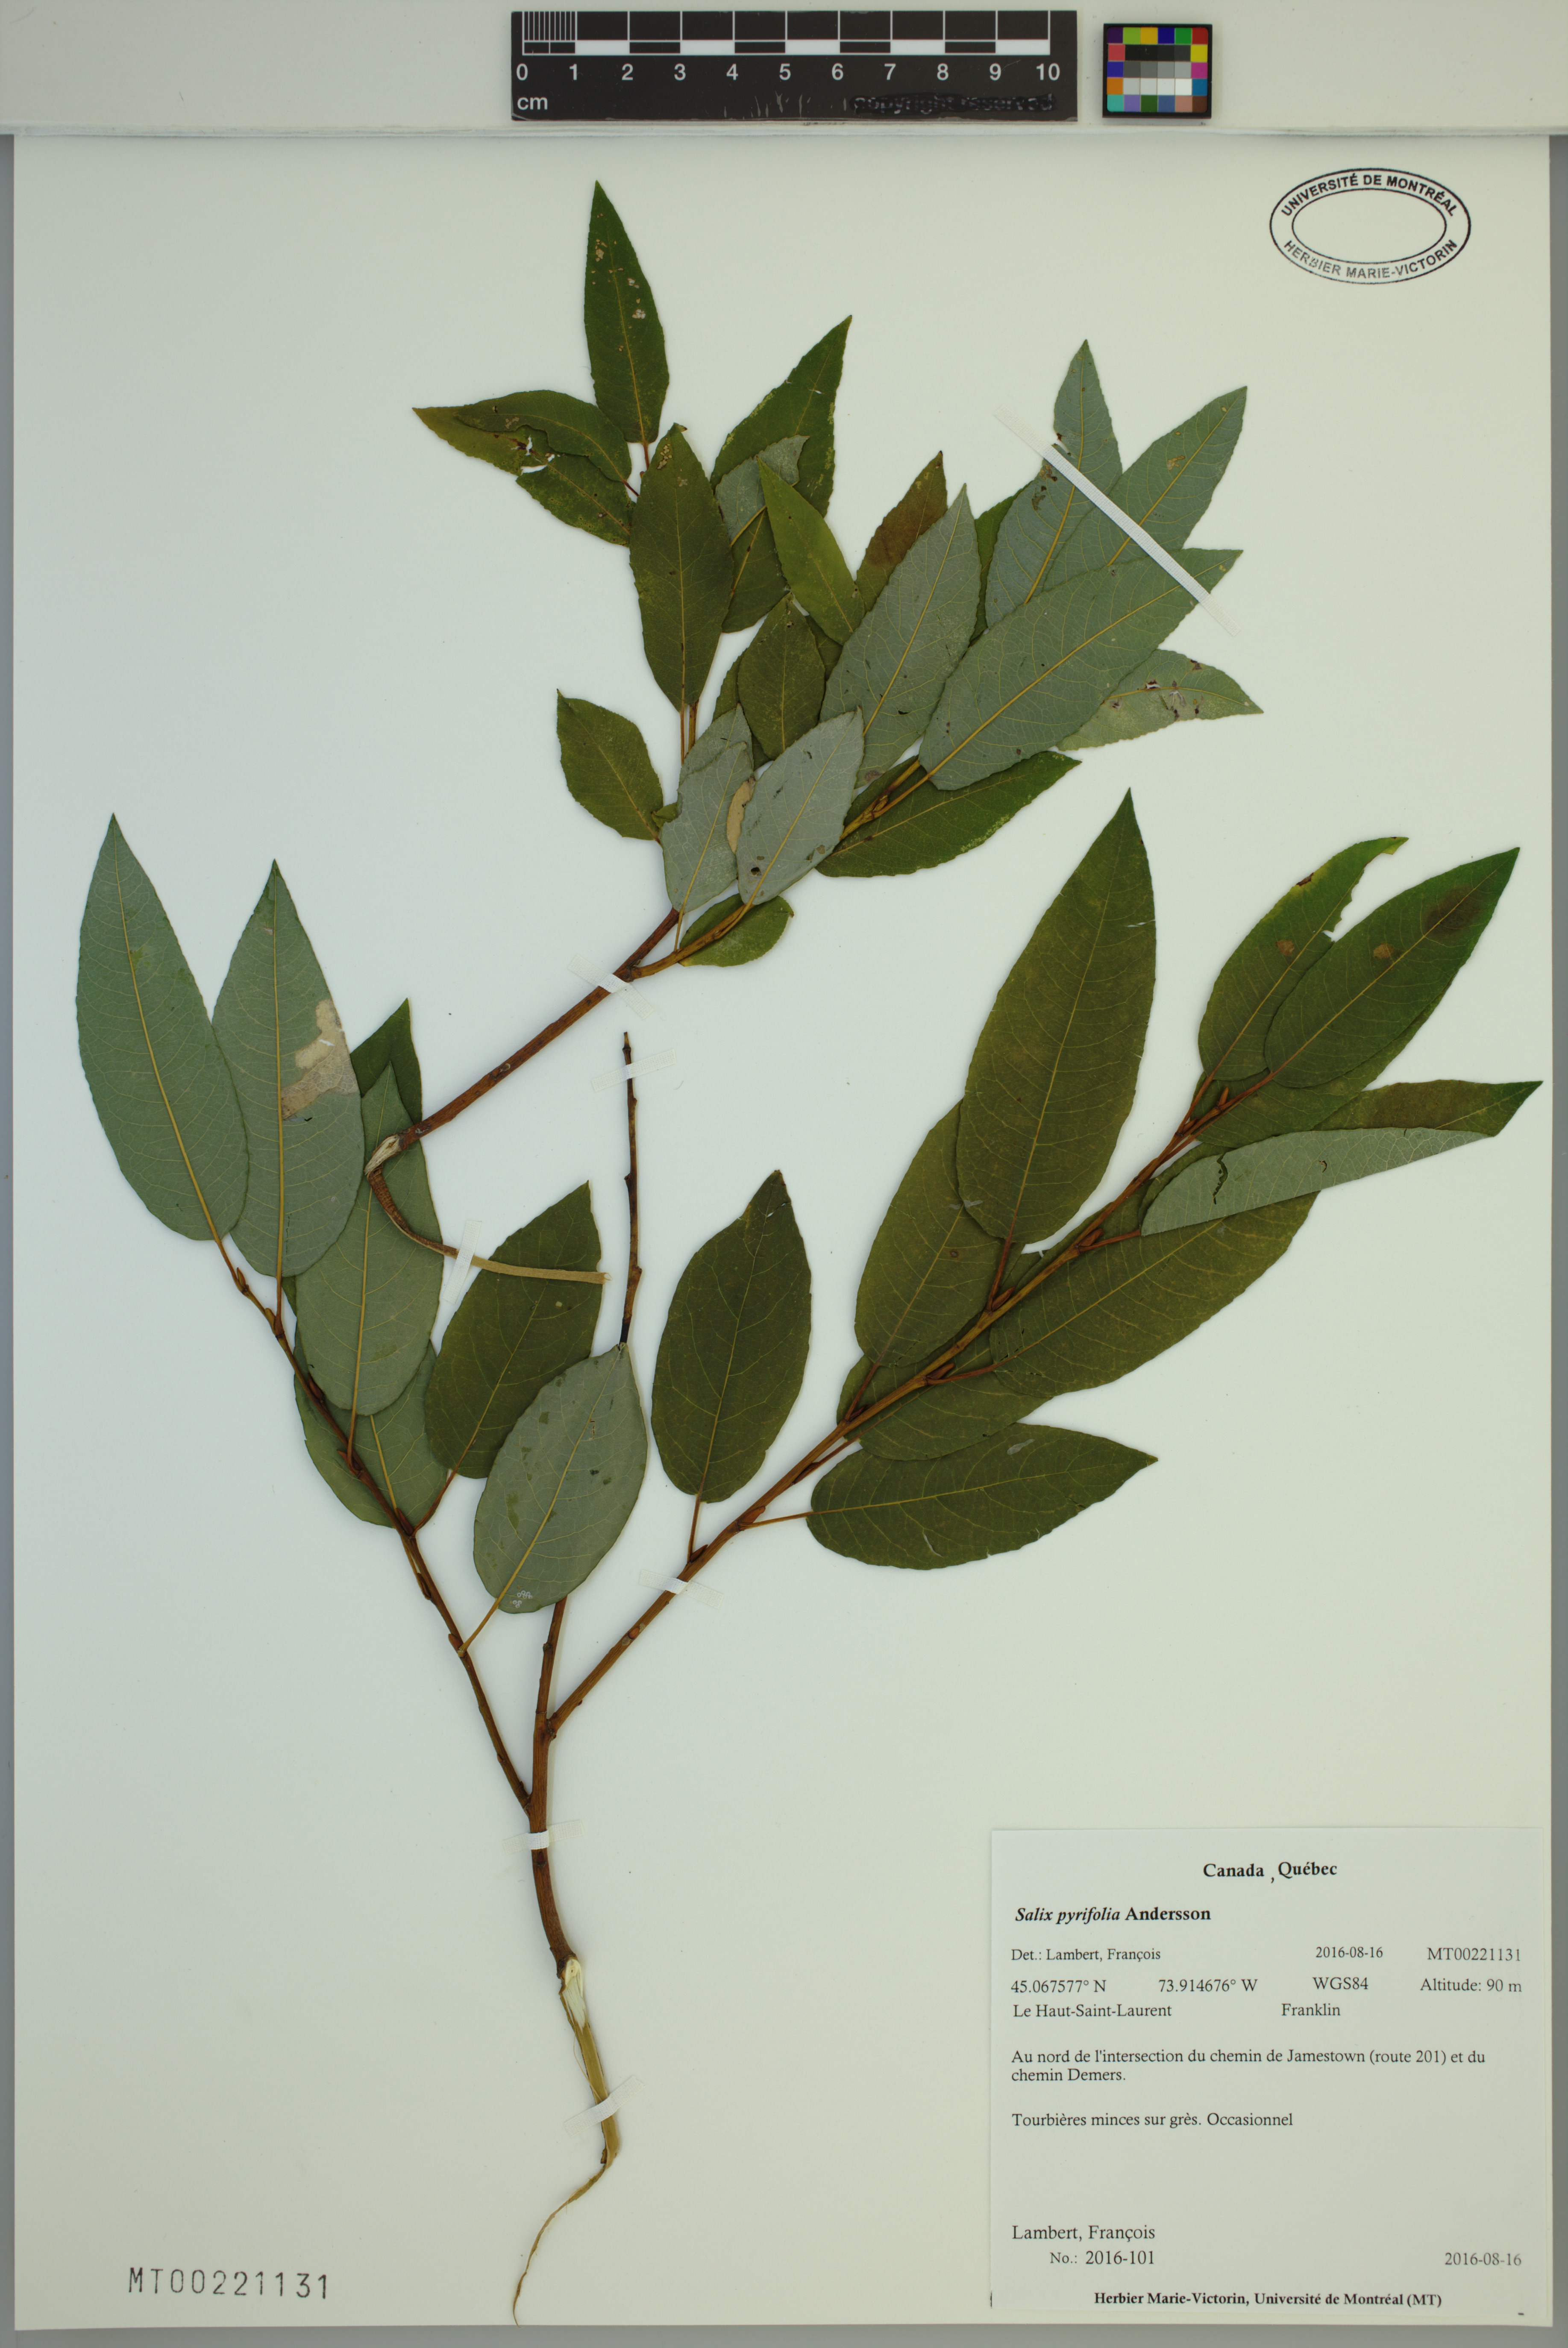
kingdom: Plantae
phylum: Tracheophyta
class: Magnoliopsida
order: Malpighiales
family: Salicaceae
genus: Salix
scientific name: Salix pyrifolia
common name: Balsam willow
